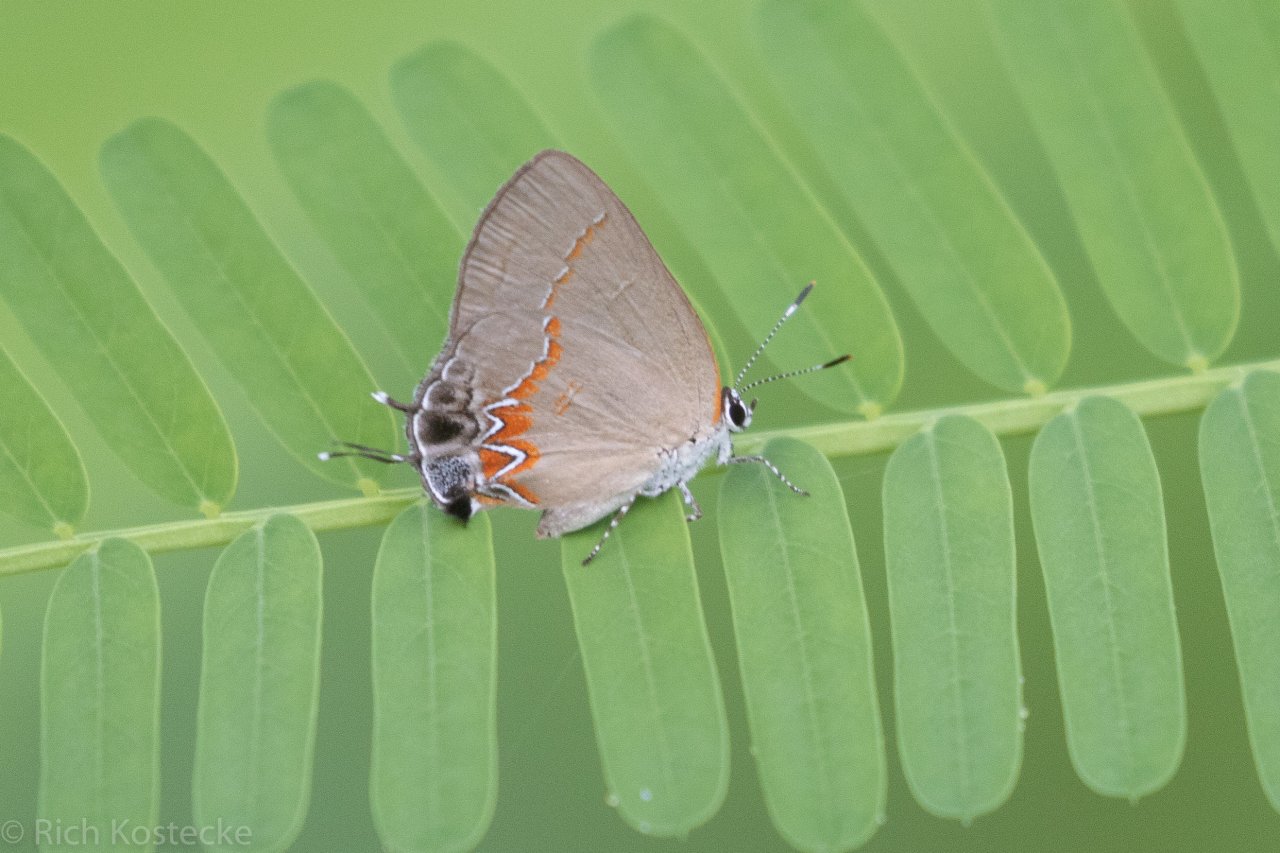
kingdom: Animalia
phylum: Arthropoda
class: Insecta
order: Lepidoptera
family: Lycaenidae
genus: Calycopis
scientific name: Calycopis isobeon
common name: Dusky-blue Groundstreak
